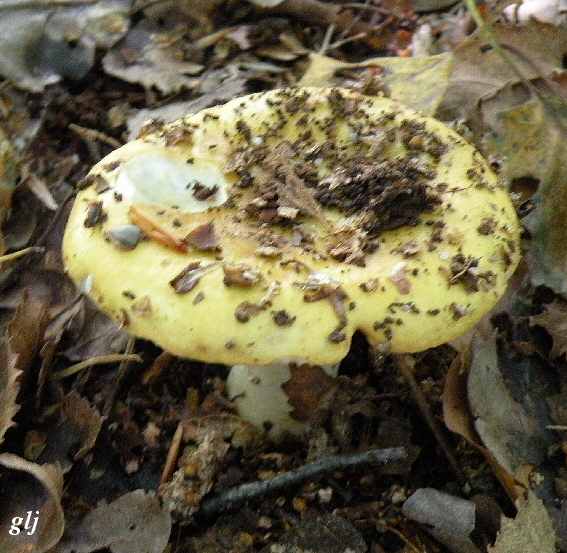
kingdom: Fungi
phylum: Basidiomycota
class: Agaricomycetes
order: Russulales
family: Russulaceae
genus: Russula
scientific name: Russula ochroleuca
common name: okkergul skørhat
